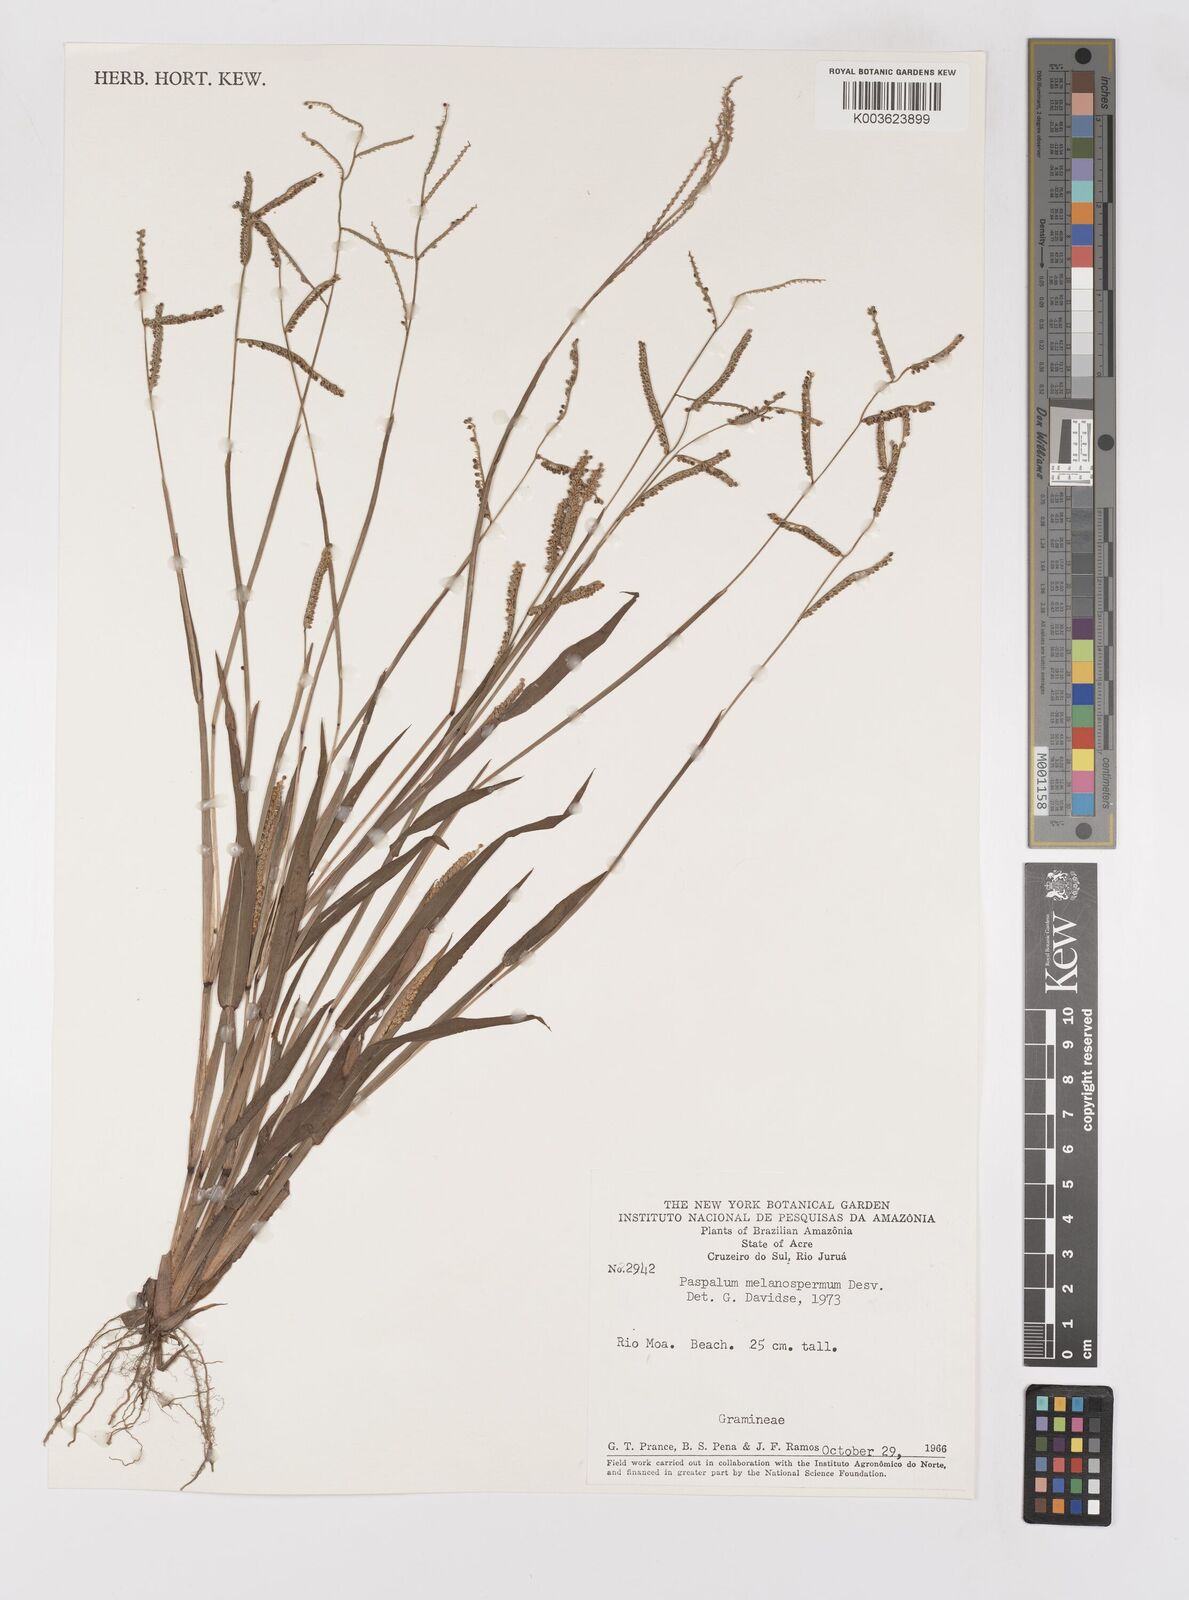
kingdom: Plantae
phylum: Tracheophyta
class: Liliopsida
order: Poales
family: Poaceae
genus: Paspalum
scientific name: Paspalum melanospermum
